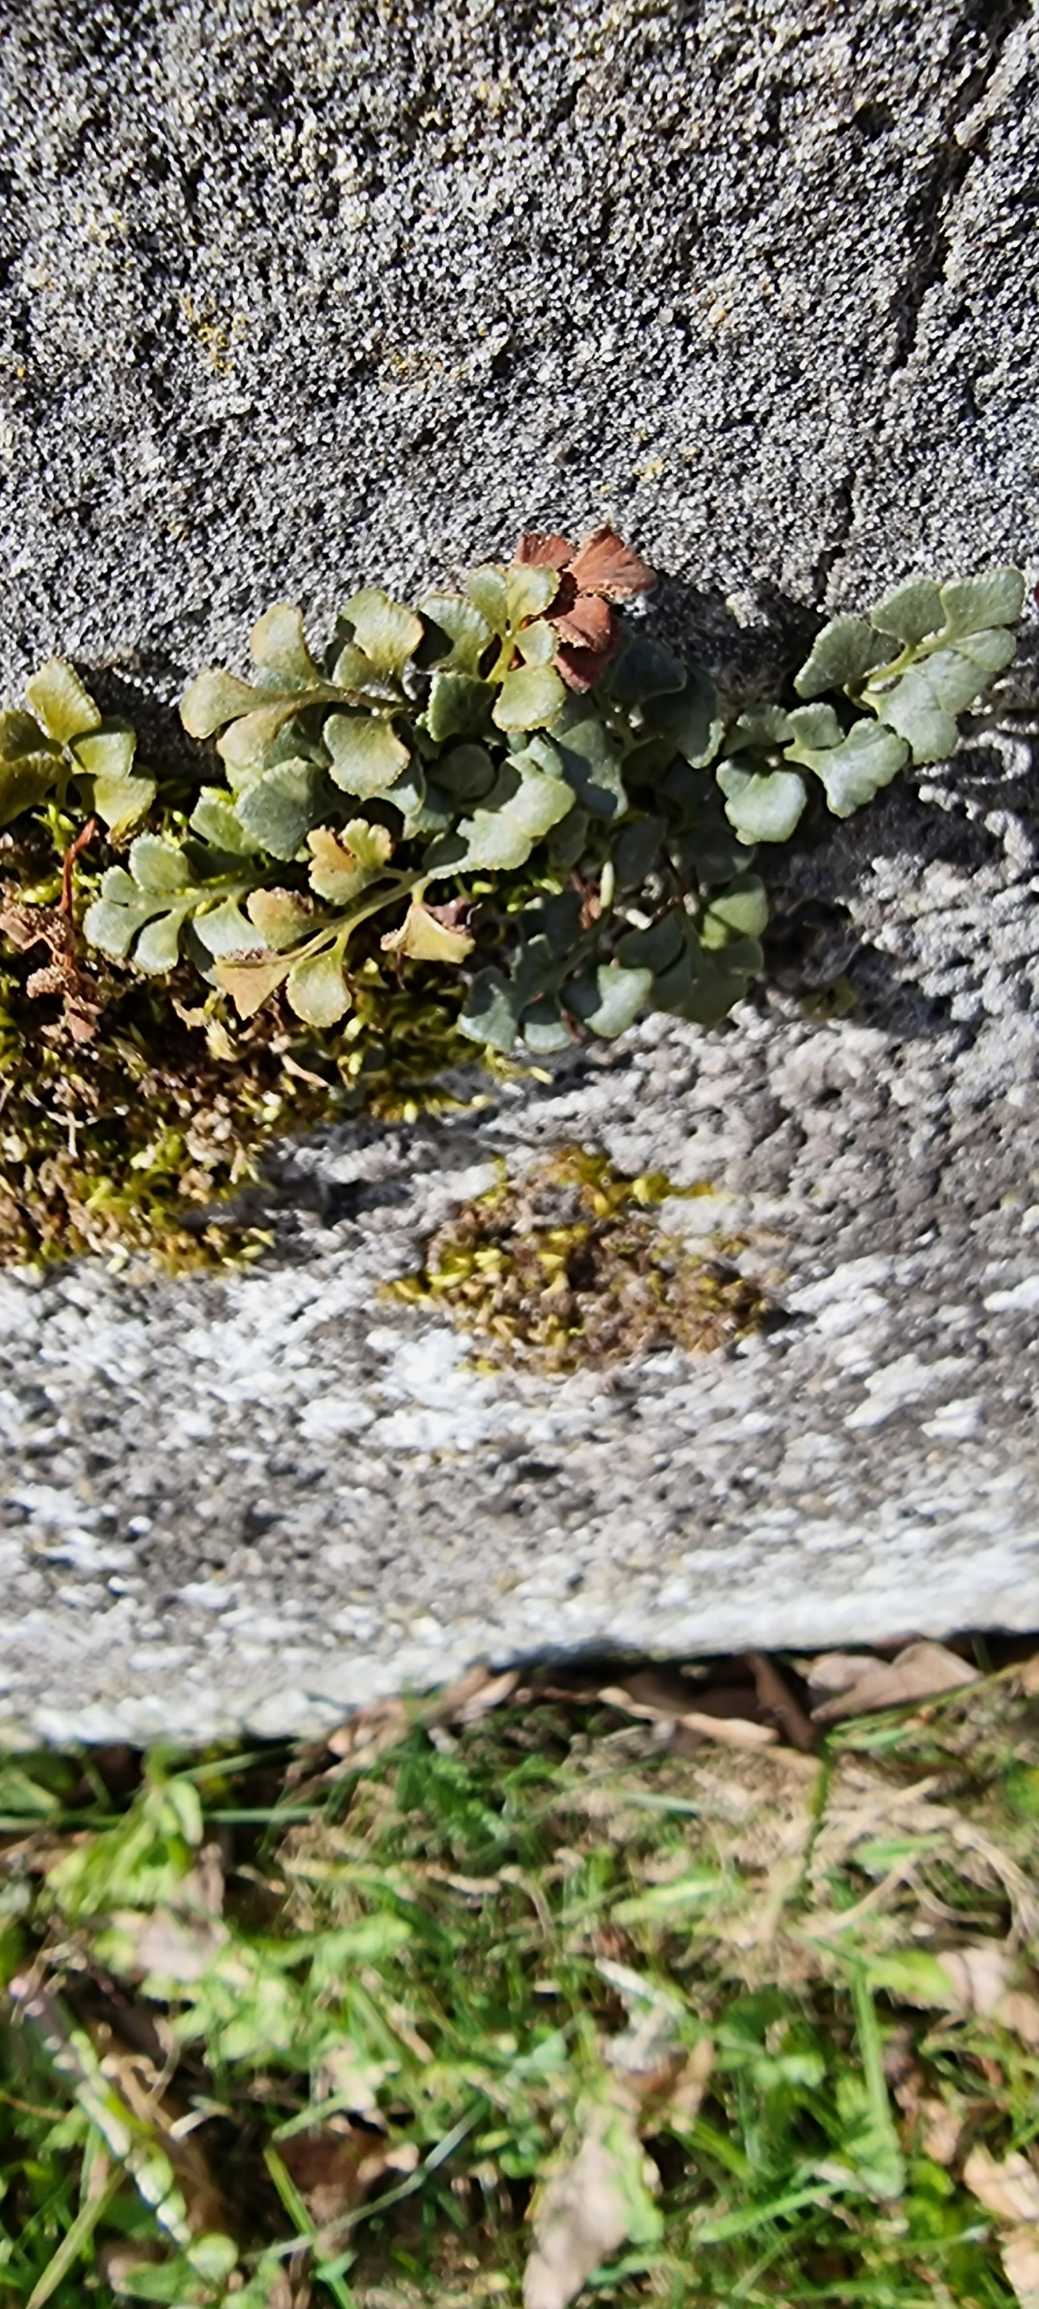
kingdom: Plantae
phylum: Tracheophyta
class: Polypodiopsida
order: Polypodiales
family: Aspleniaceae
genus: Asplenium
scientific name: Asplenium ruta-muraria
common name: Murrude
